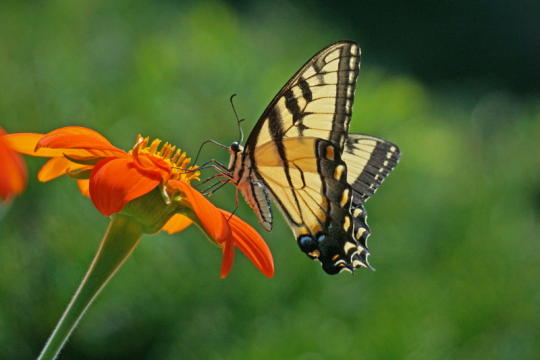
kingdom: Animalia
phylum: Arthropoda
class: Insecta
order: Lepidoptera
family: Papilionidae
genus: Pterourus
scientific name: Pterourus glaucus
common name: Eastern Tiger Swallowtail
